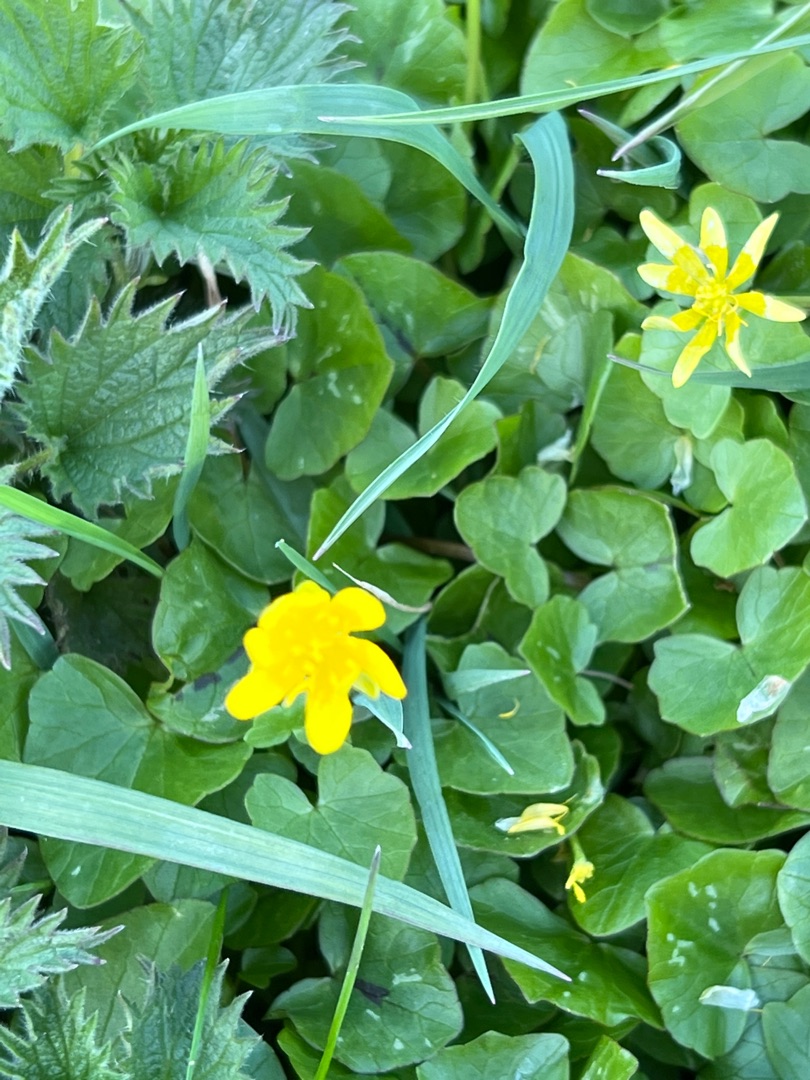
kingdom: Plantae
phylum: Tracheophyta
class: Magnoliopsida
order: Ranunculales
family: Ranunculaceae
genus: Ficaria
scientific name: Ficaria verna
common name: Vorterod
